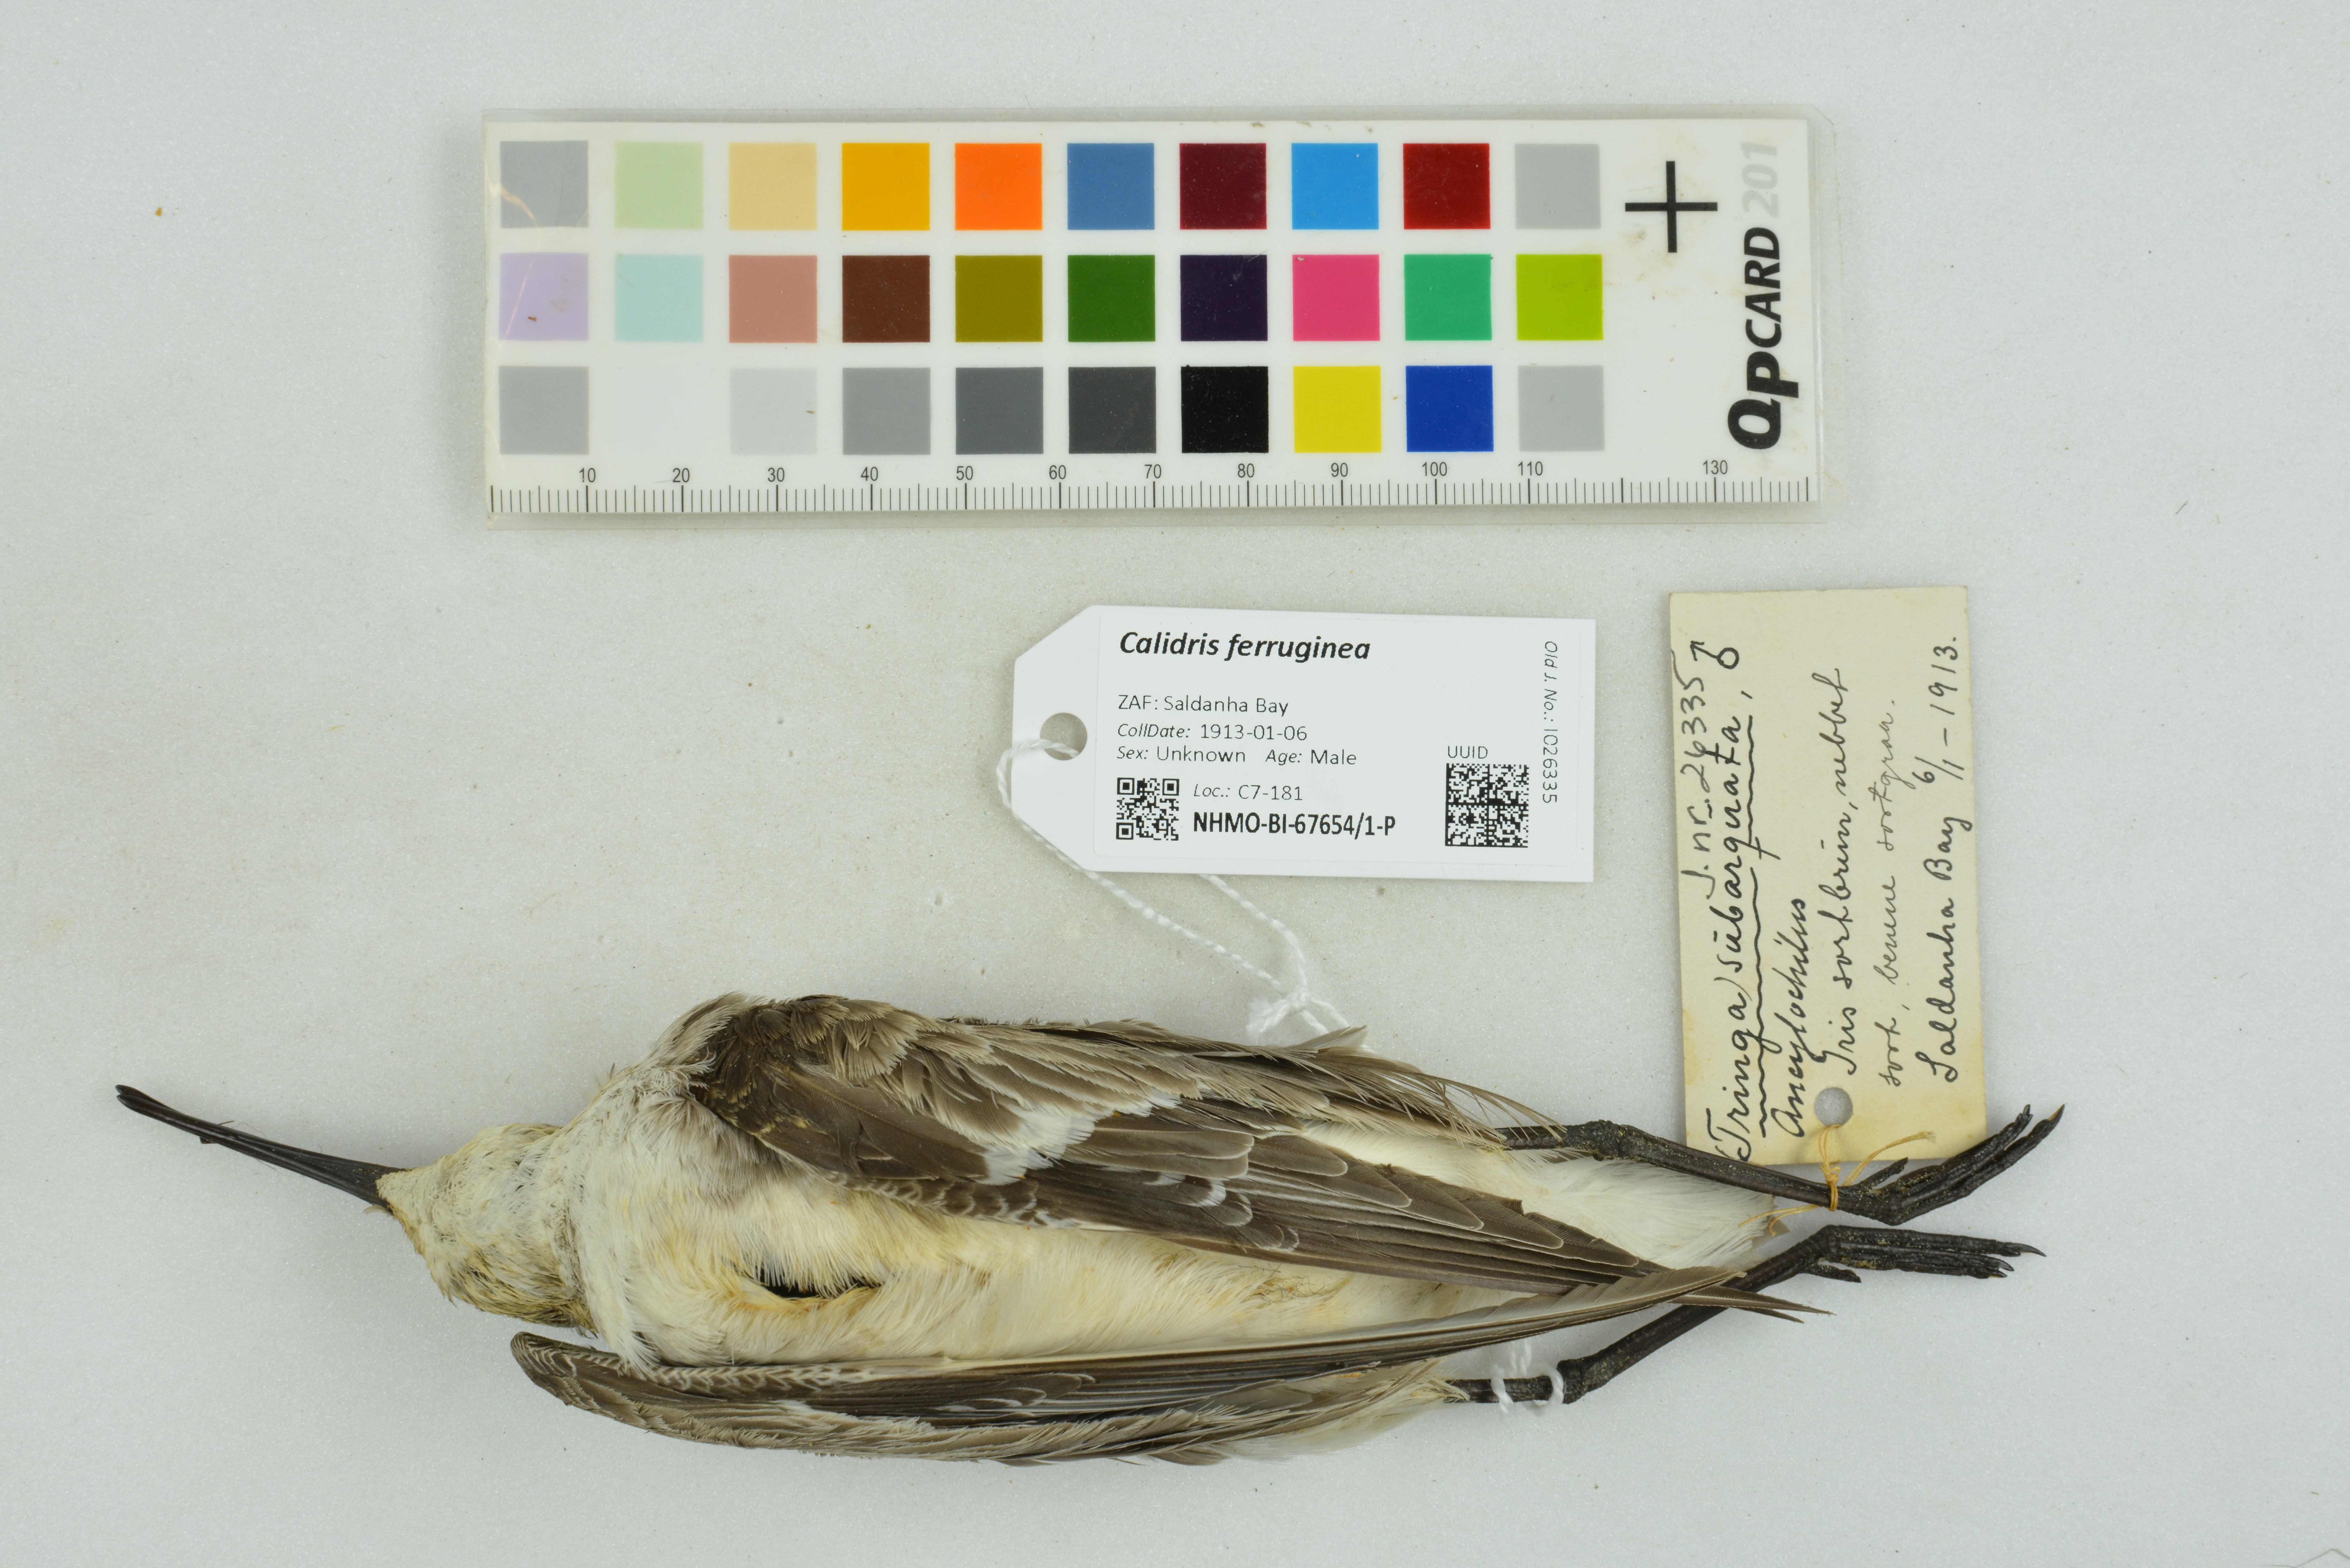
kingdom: Animalia
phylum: Chordata
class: Aves
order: Charadriiformes
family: Scolopacidae
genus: Calidris
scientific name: Calidris ferruginea
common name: Curlew sandpiper
